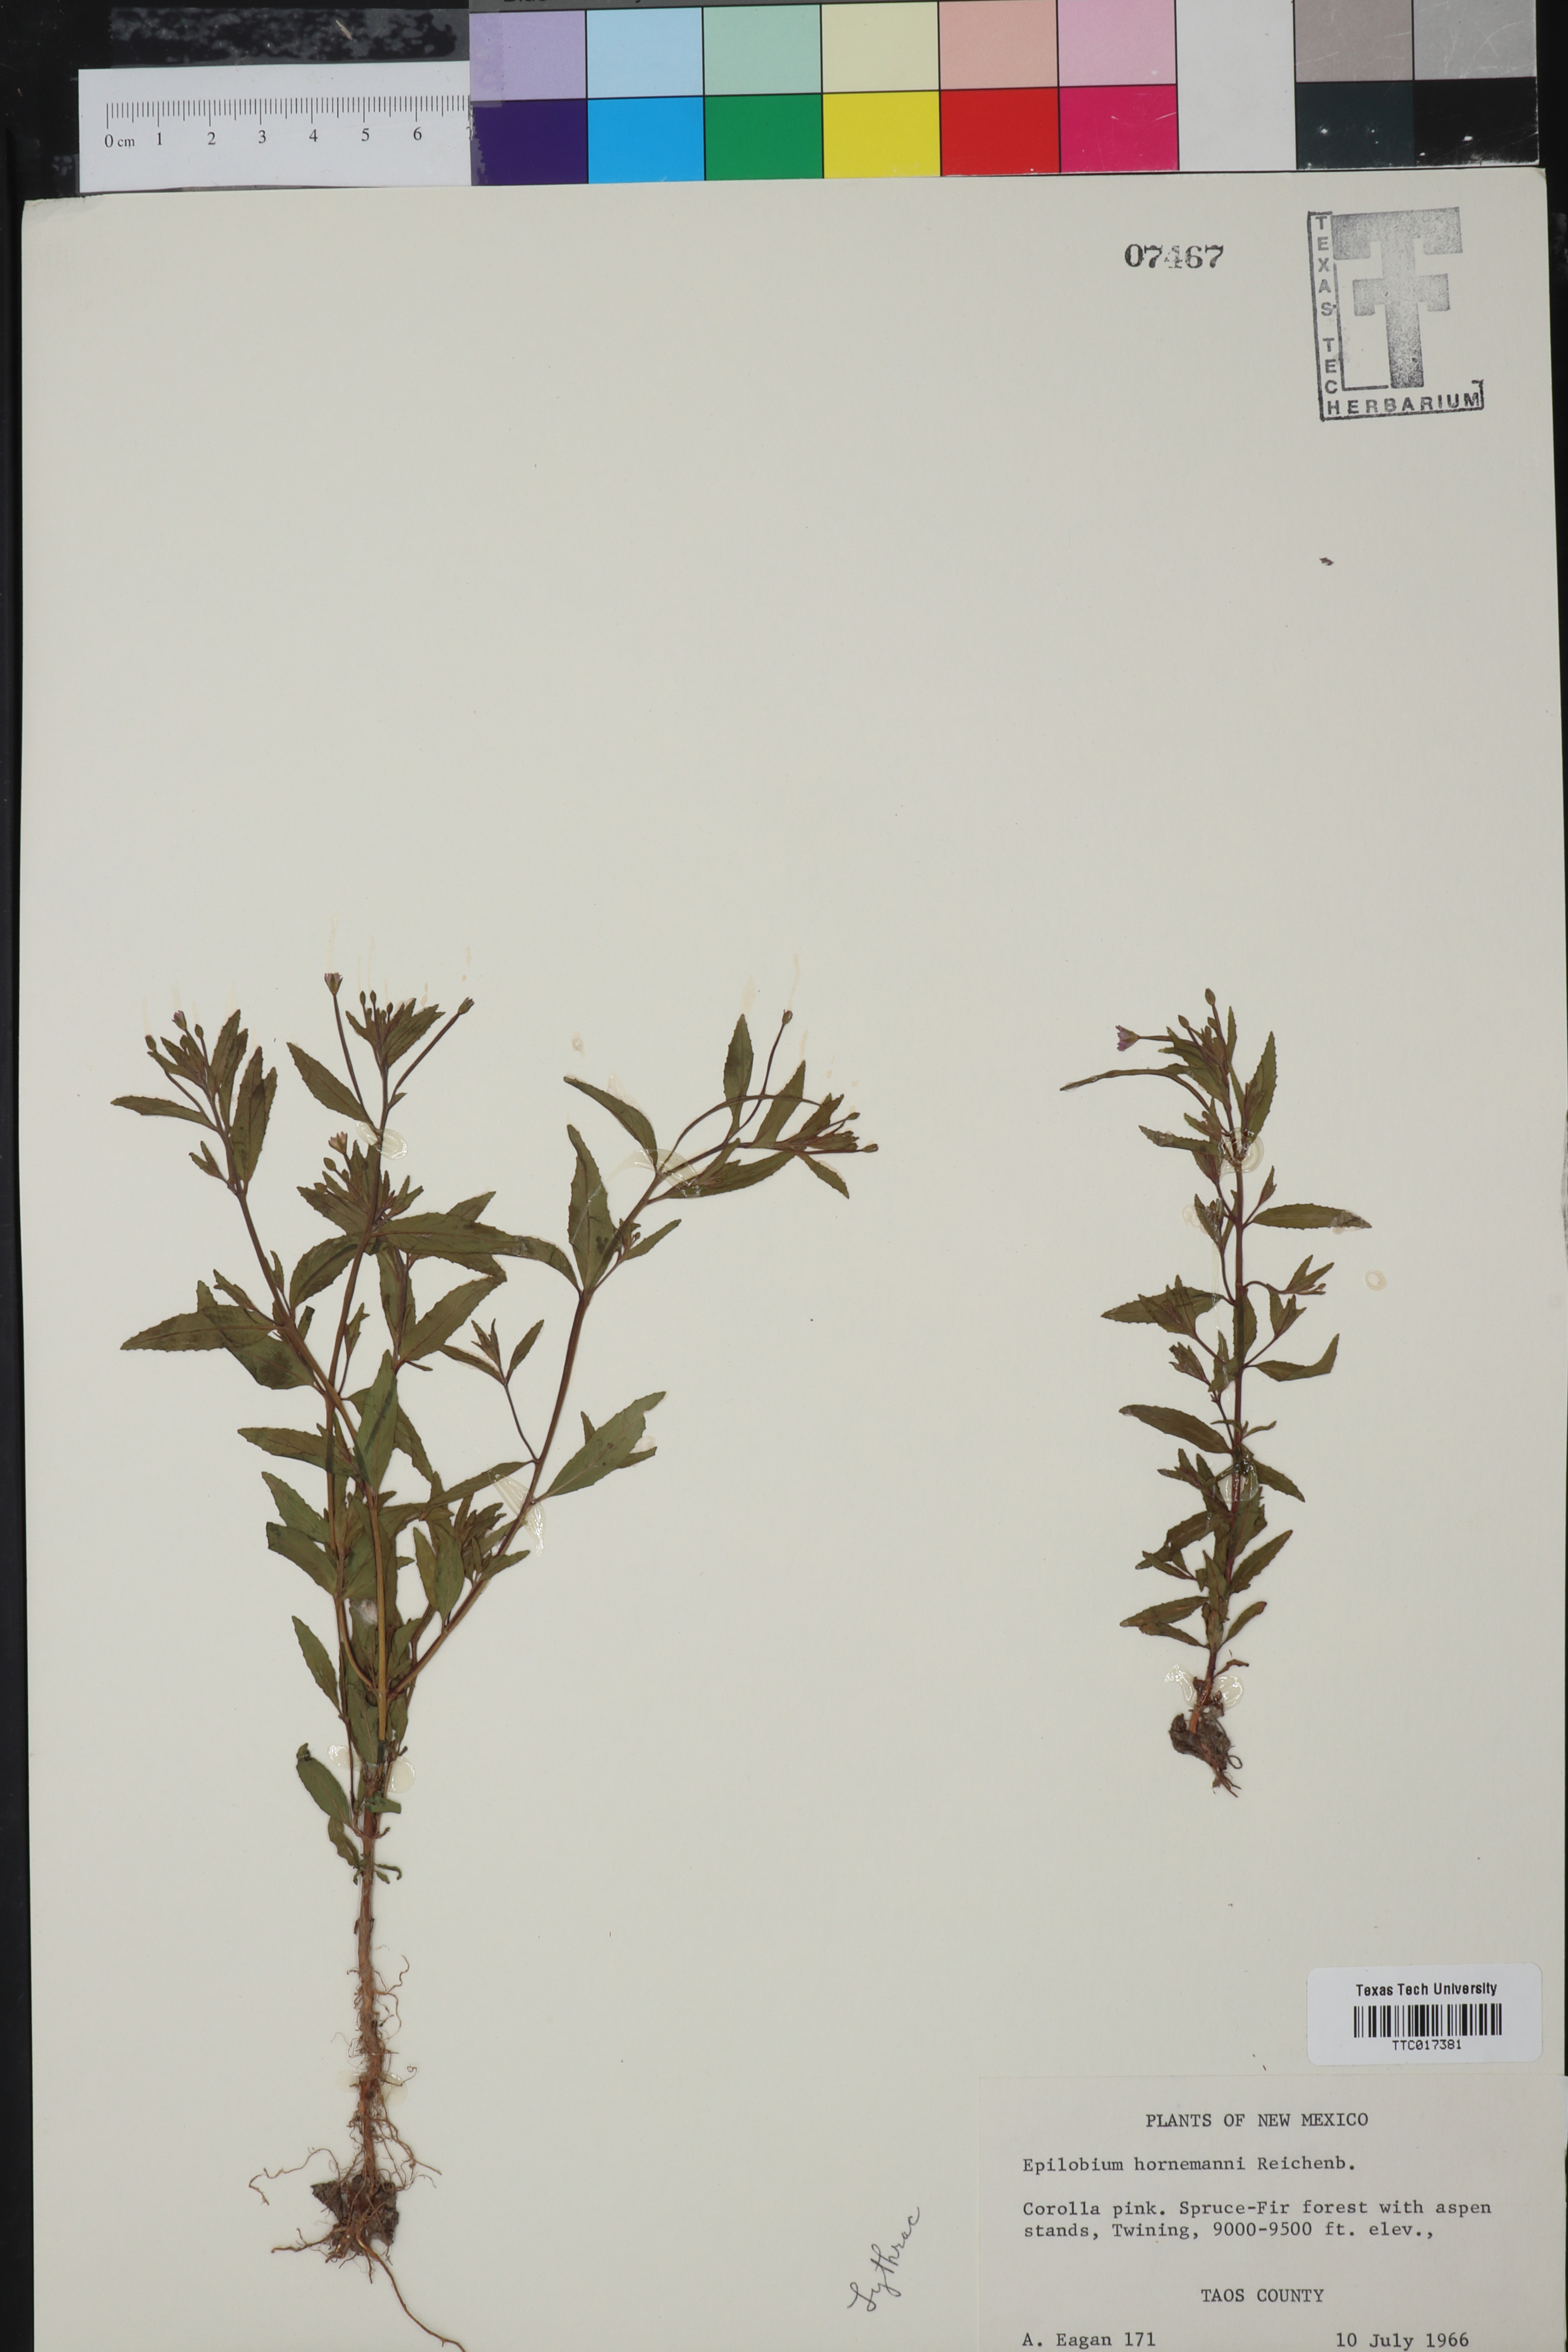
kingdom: Plantae
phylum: Tracheophyta
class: Magnoliopsida
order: Myrtales
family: Onagraceae
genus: Epilobium
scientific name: Epilobium hornemannii
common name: Hornemann's willowherb
